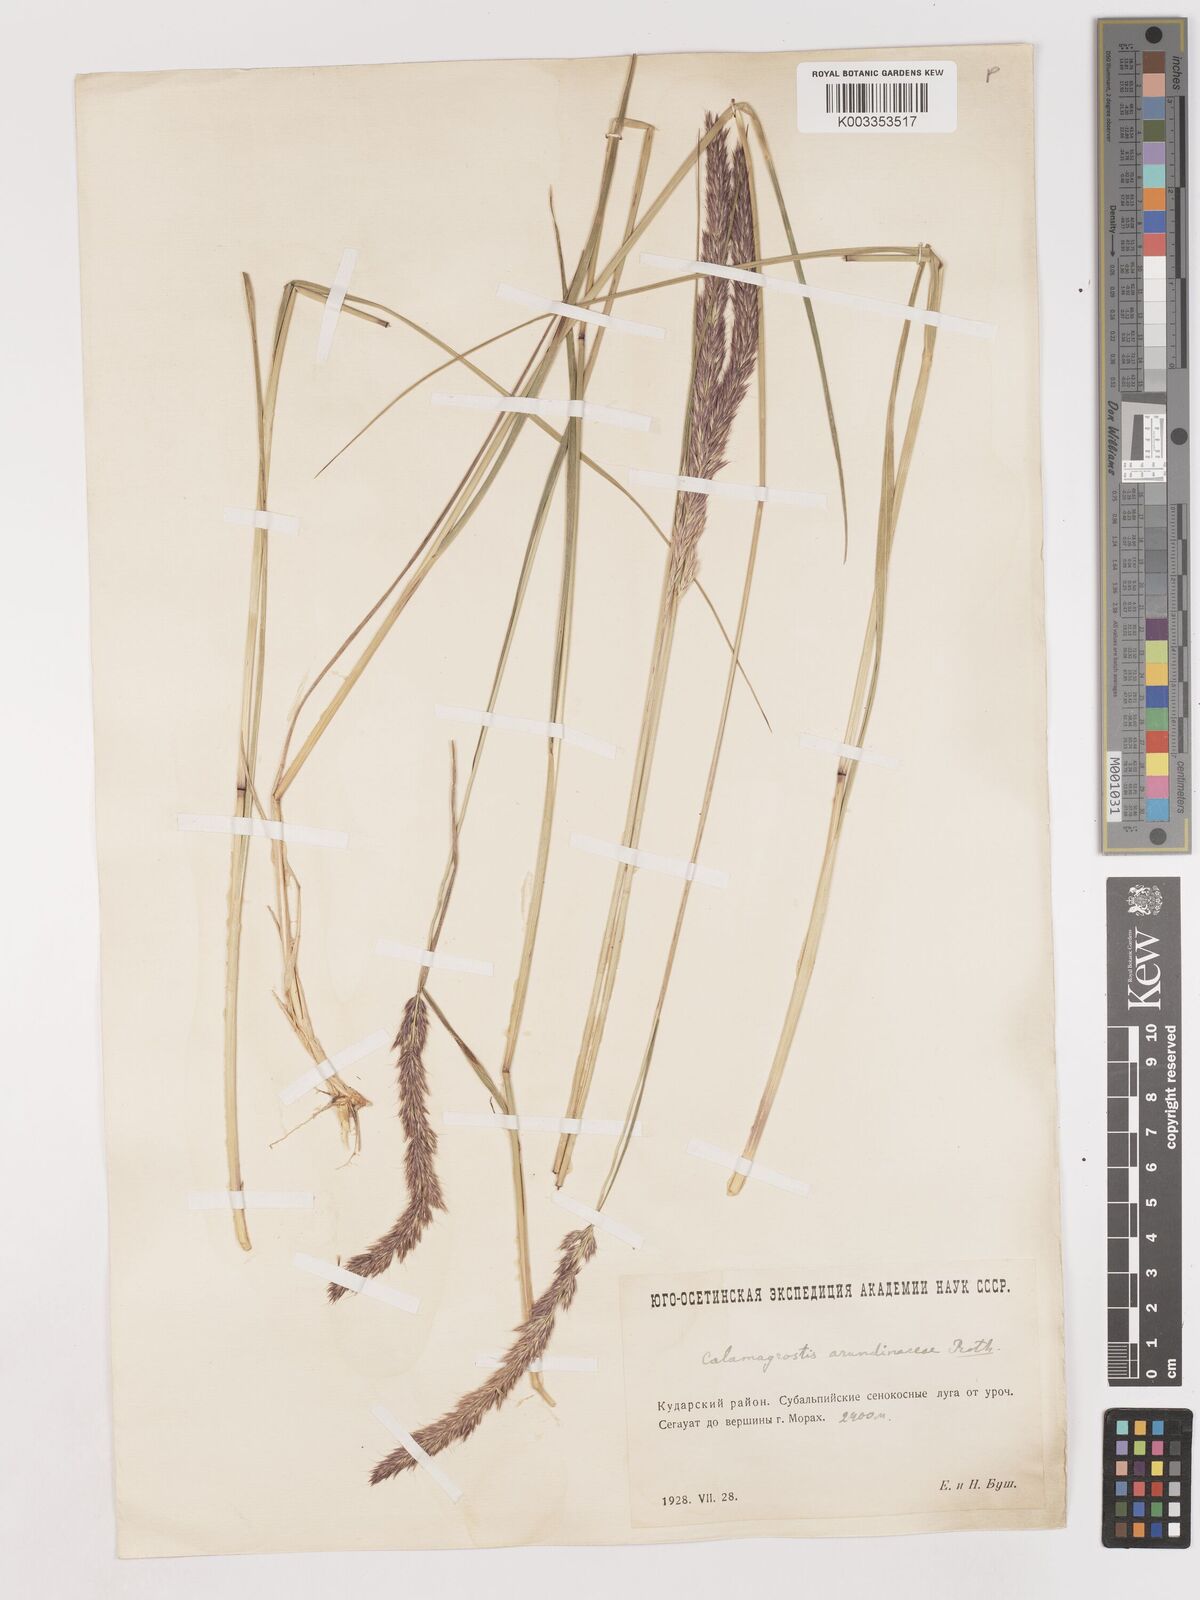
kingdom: Plantae
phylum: Tracheophyta
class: Liliopsida
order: Poales
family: Poaceae
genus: Calamagrostis
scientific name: Calamagrostis
